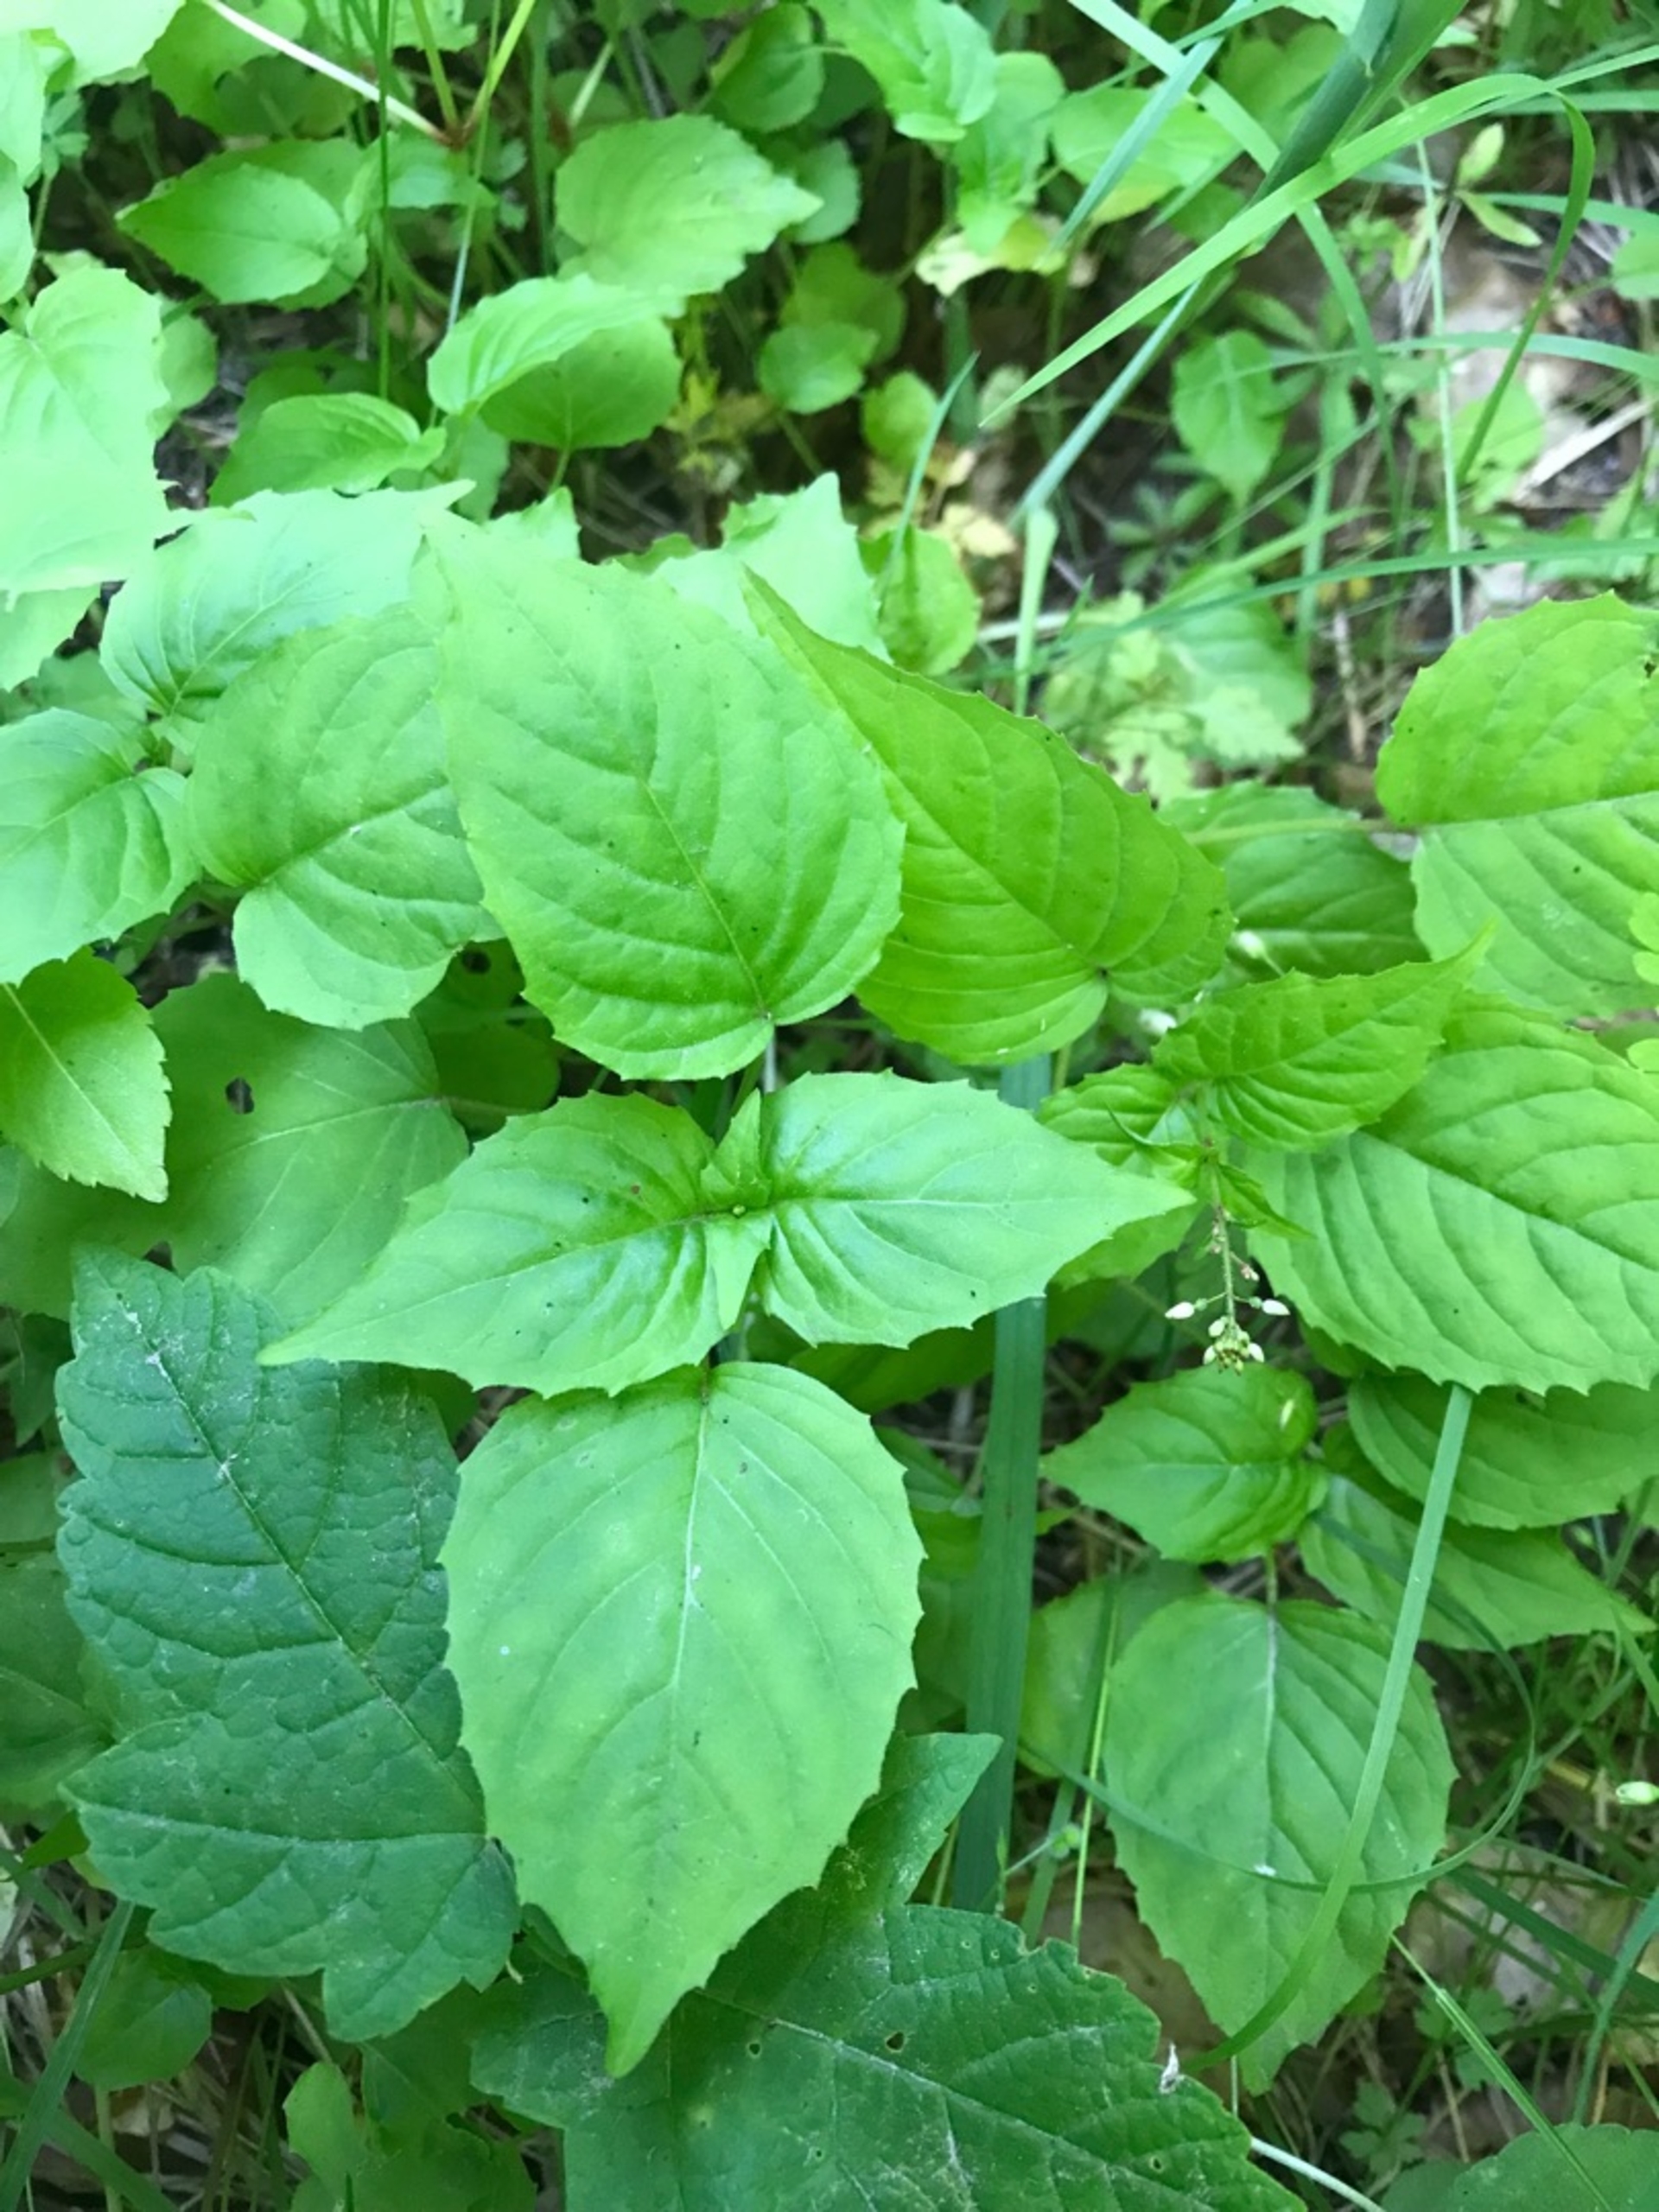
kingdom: Plantae
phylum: Tracheophyta
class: Magnoliopsida
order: Myrtales
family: Onagraceae
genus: Circaea
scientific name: Circaea intermedia
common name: Spidsbladet steffensurt
